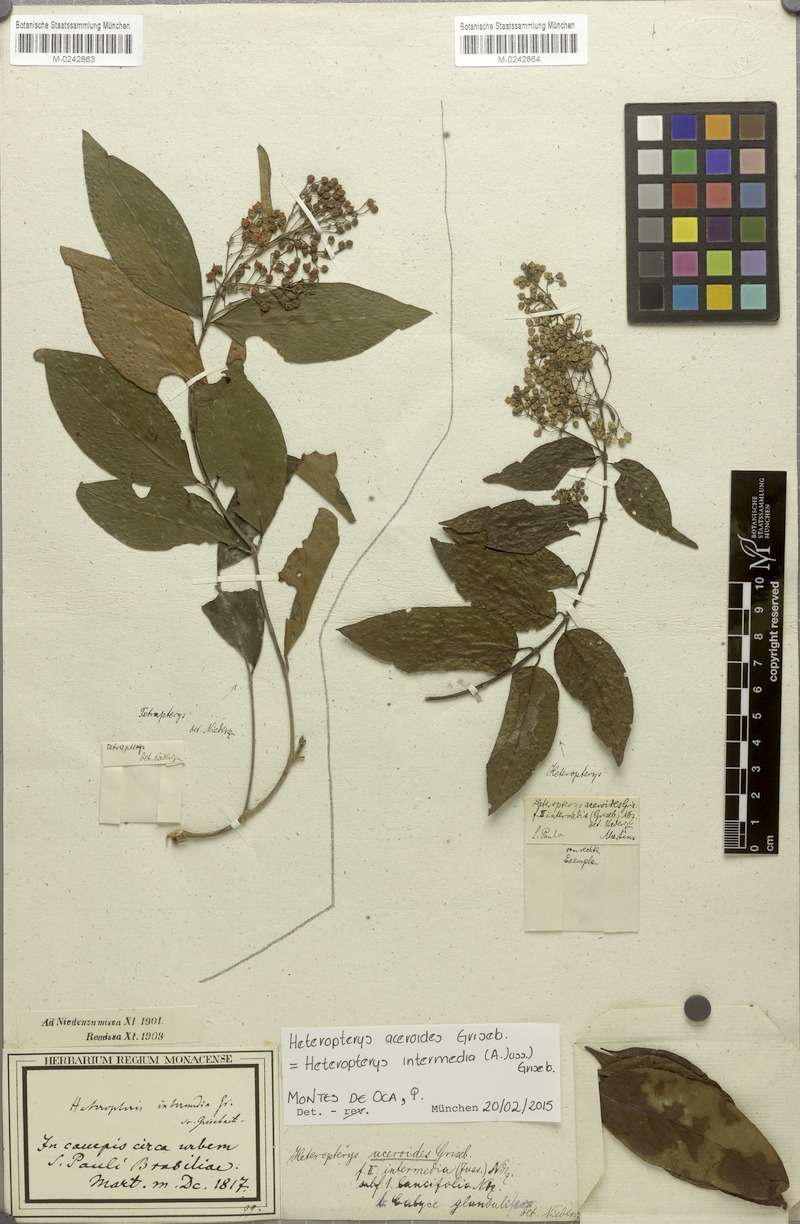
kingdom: Plantae
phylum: Tracheophyta
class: Magnoliopsida
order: Malpighiales
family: Malpighiaceae
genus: Tetrapterys
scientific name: Tetrapterys
